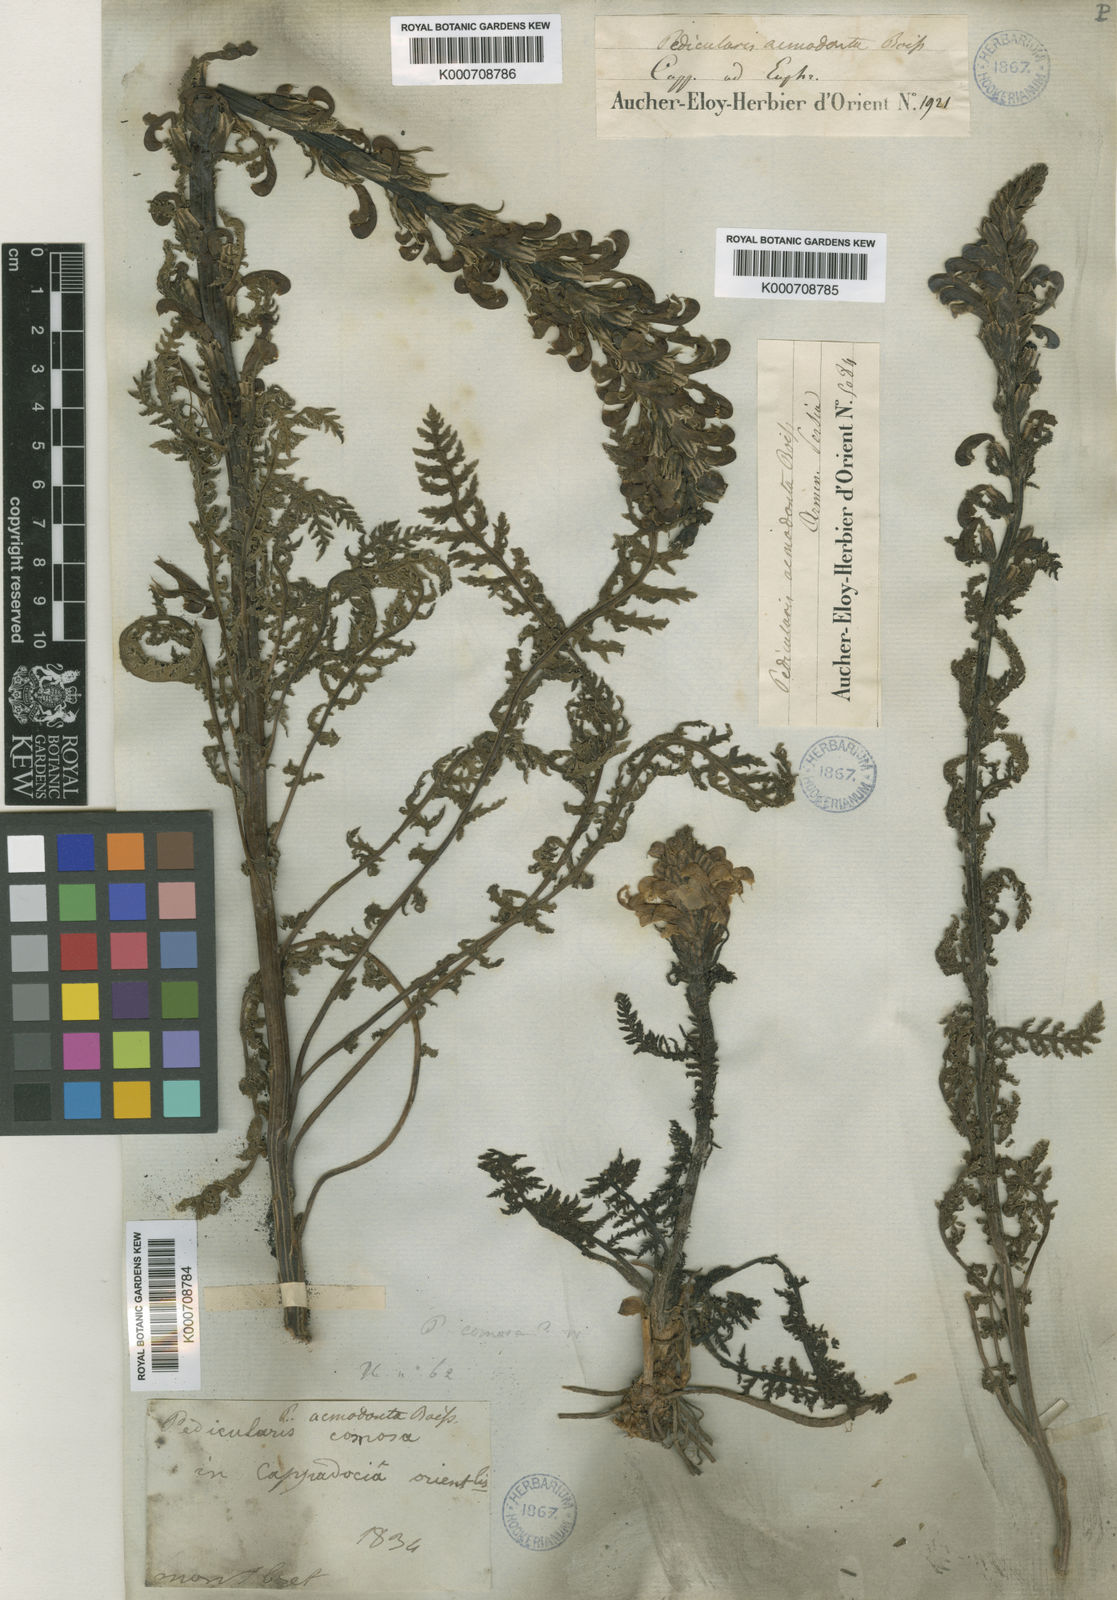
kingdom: Plantae
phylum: Tracheophyta
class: Magnoliopsida
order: Lamiales
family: Orobanchaceae
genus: Pedicularis
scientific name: Pedicularis sibthorpii
